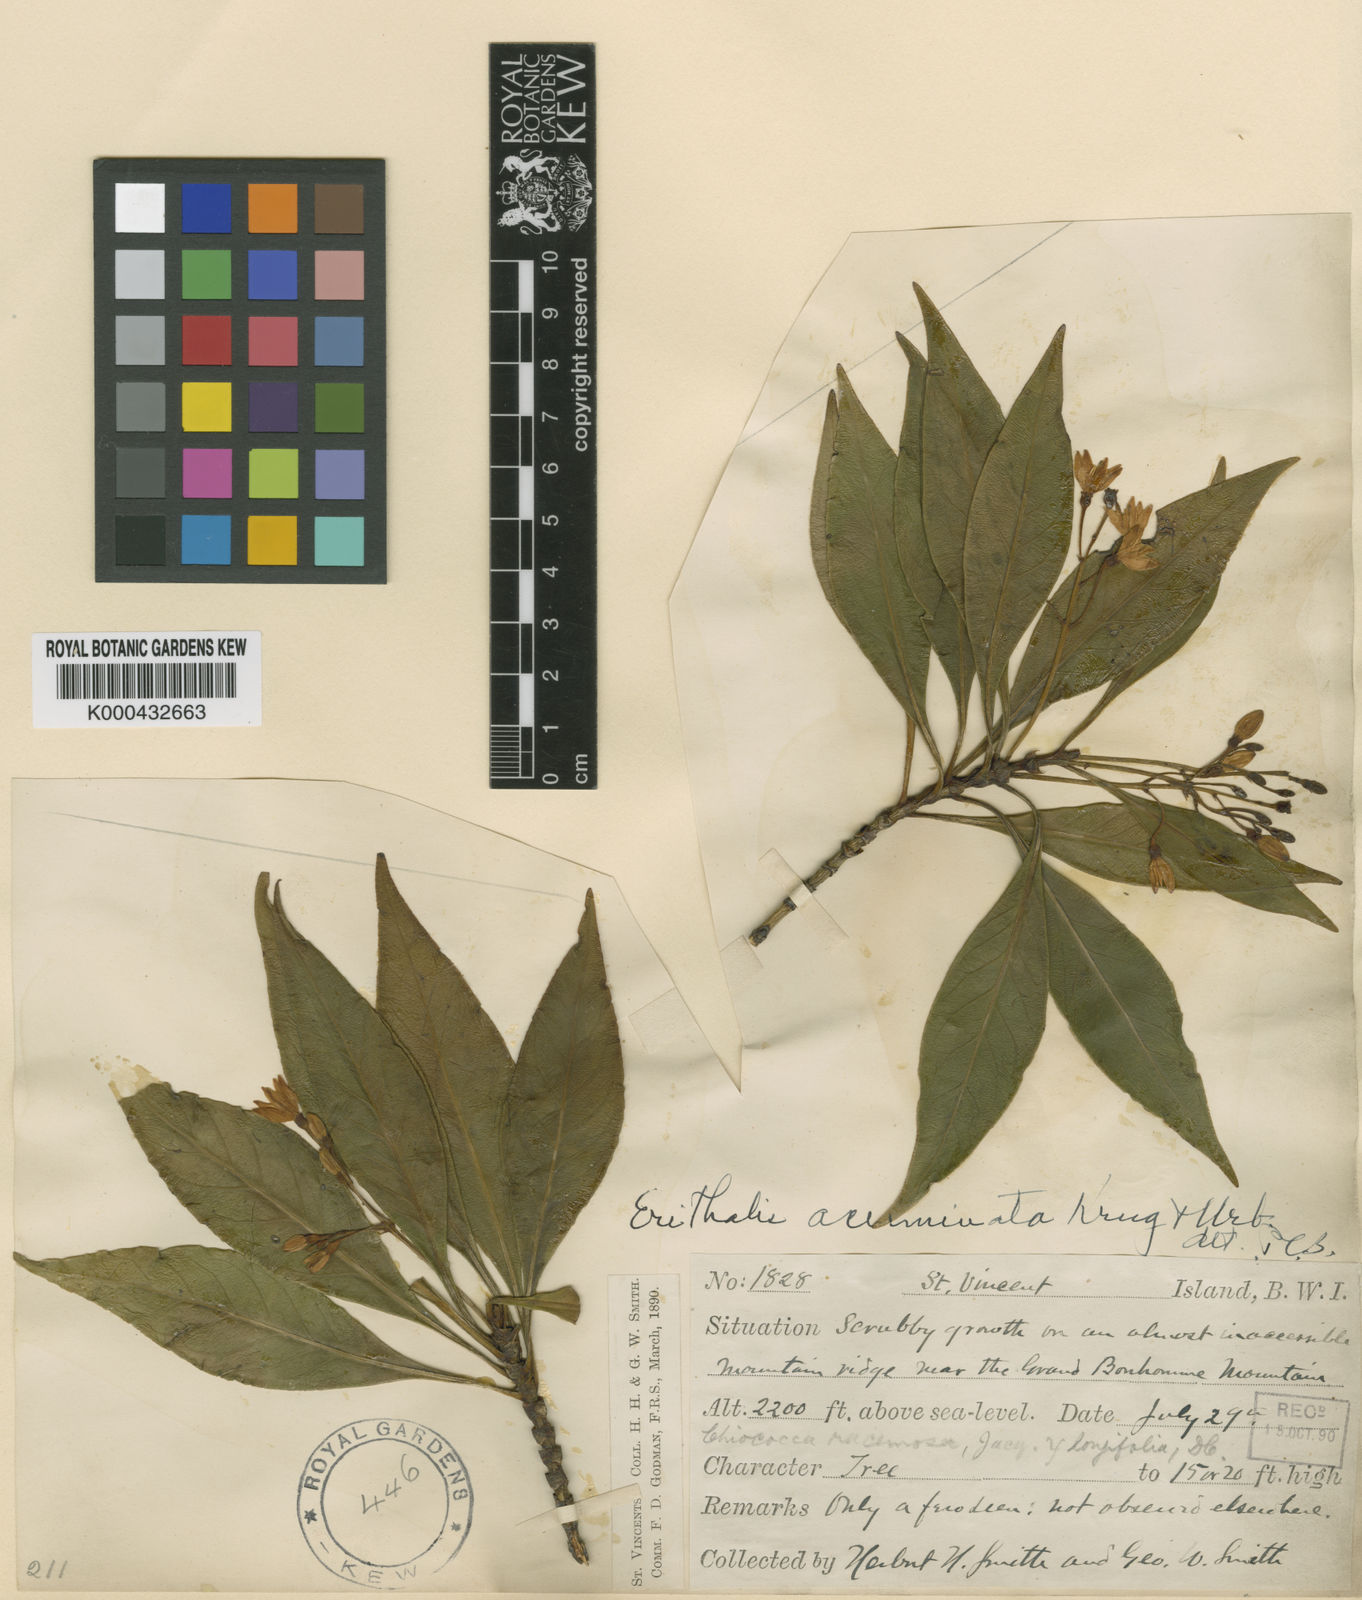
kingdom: Plantae
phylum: Tracheophyta
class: Magnoliopsida
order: Gentianales
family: Rubiaceae
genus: Erithalis
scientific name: Erithalis angustifolia
